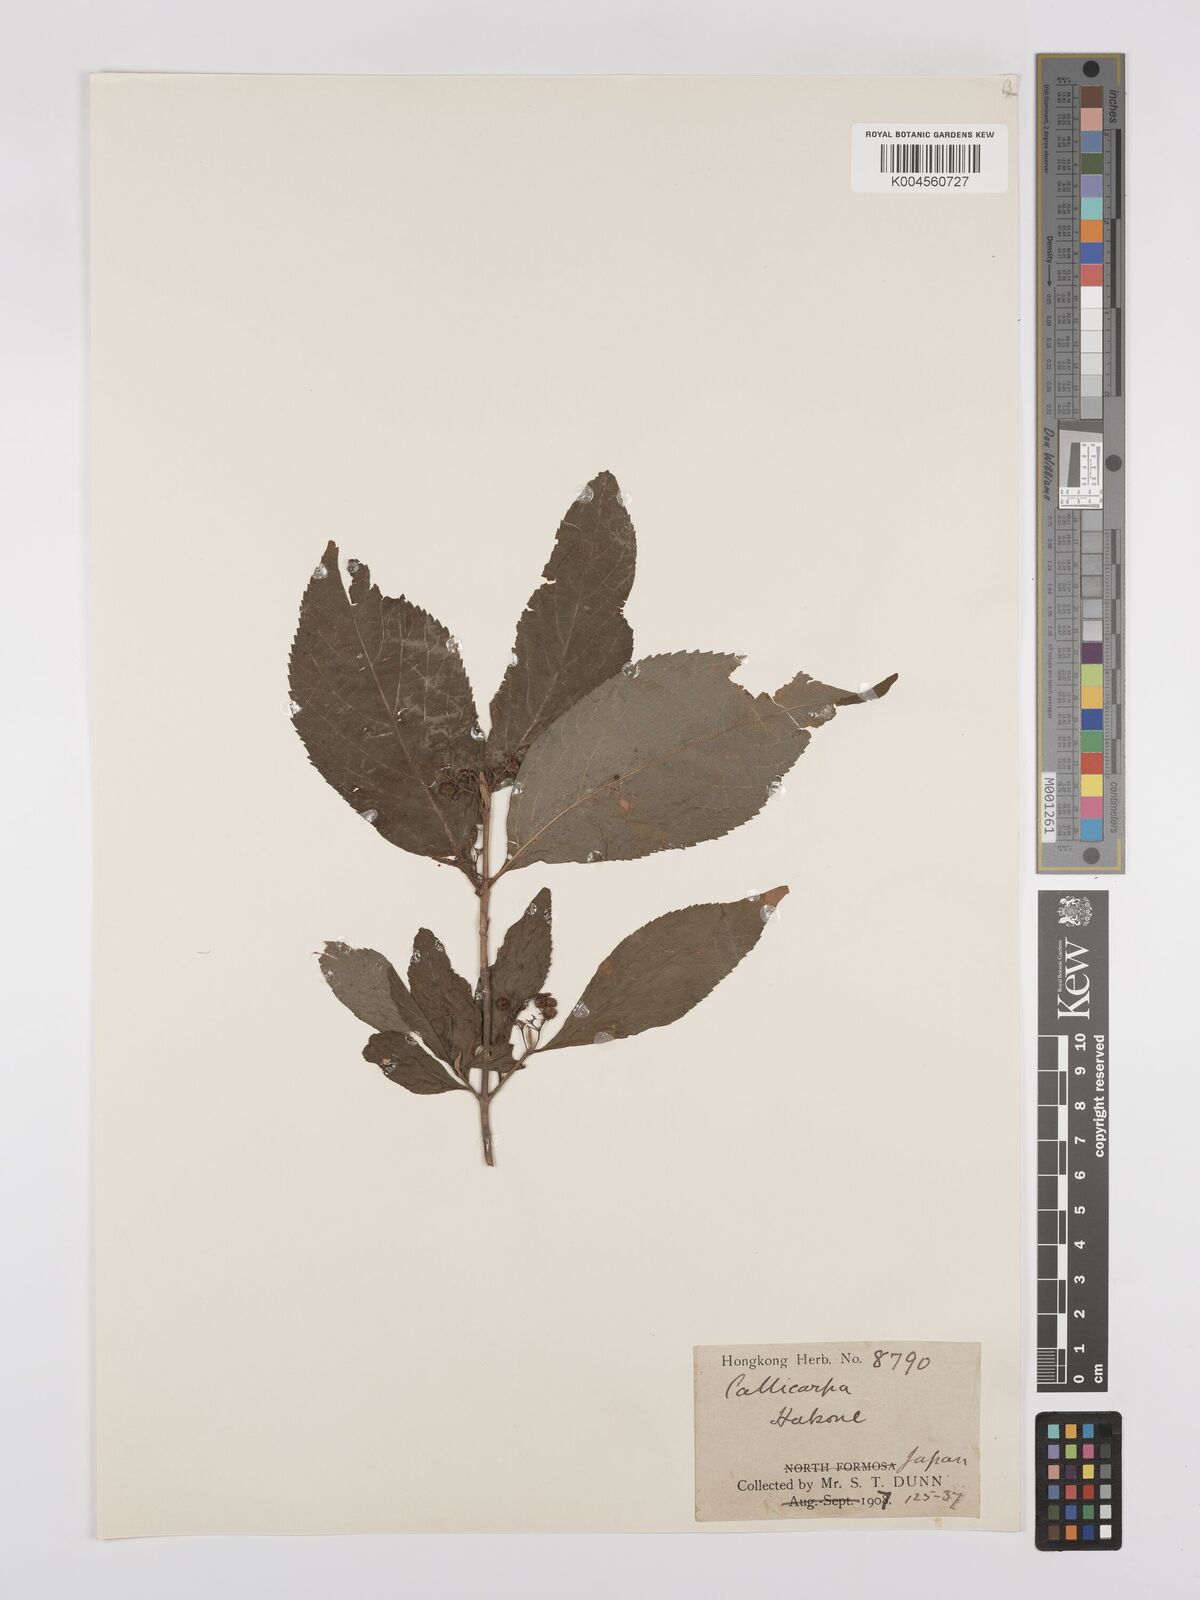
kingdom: Plantae
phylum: Tracheophyta
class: Magnoliopsida
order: Lamiales
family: Lamiaceae
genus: Callicarpa
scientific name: Callicarpa japonica
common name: Japanese beauty-berry
